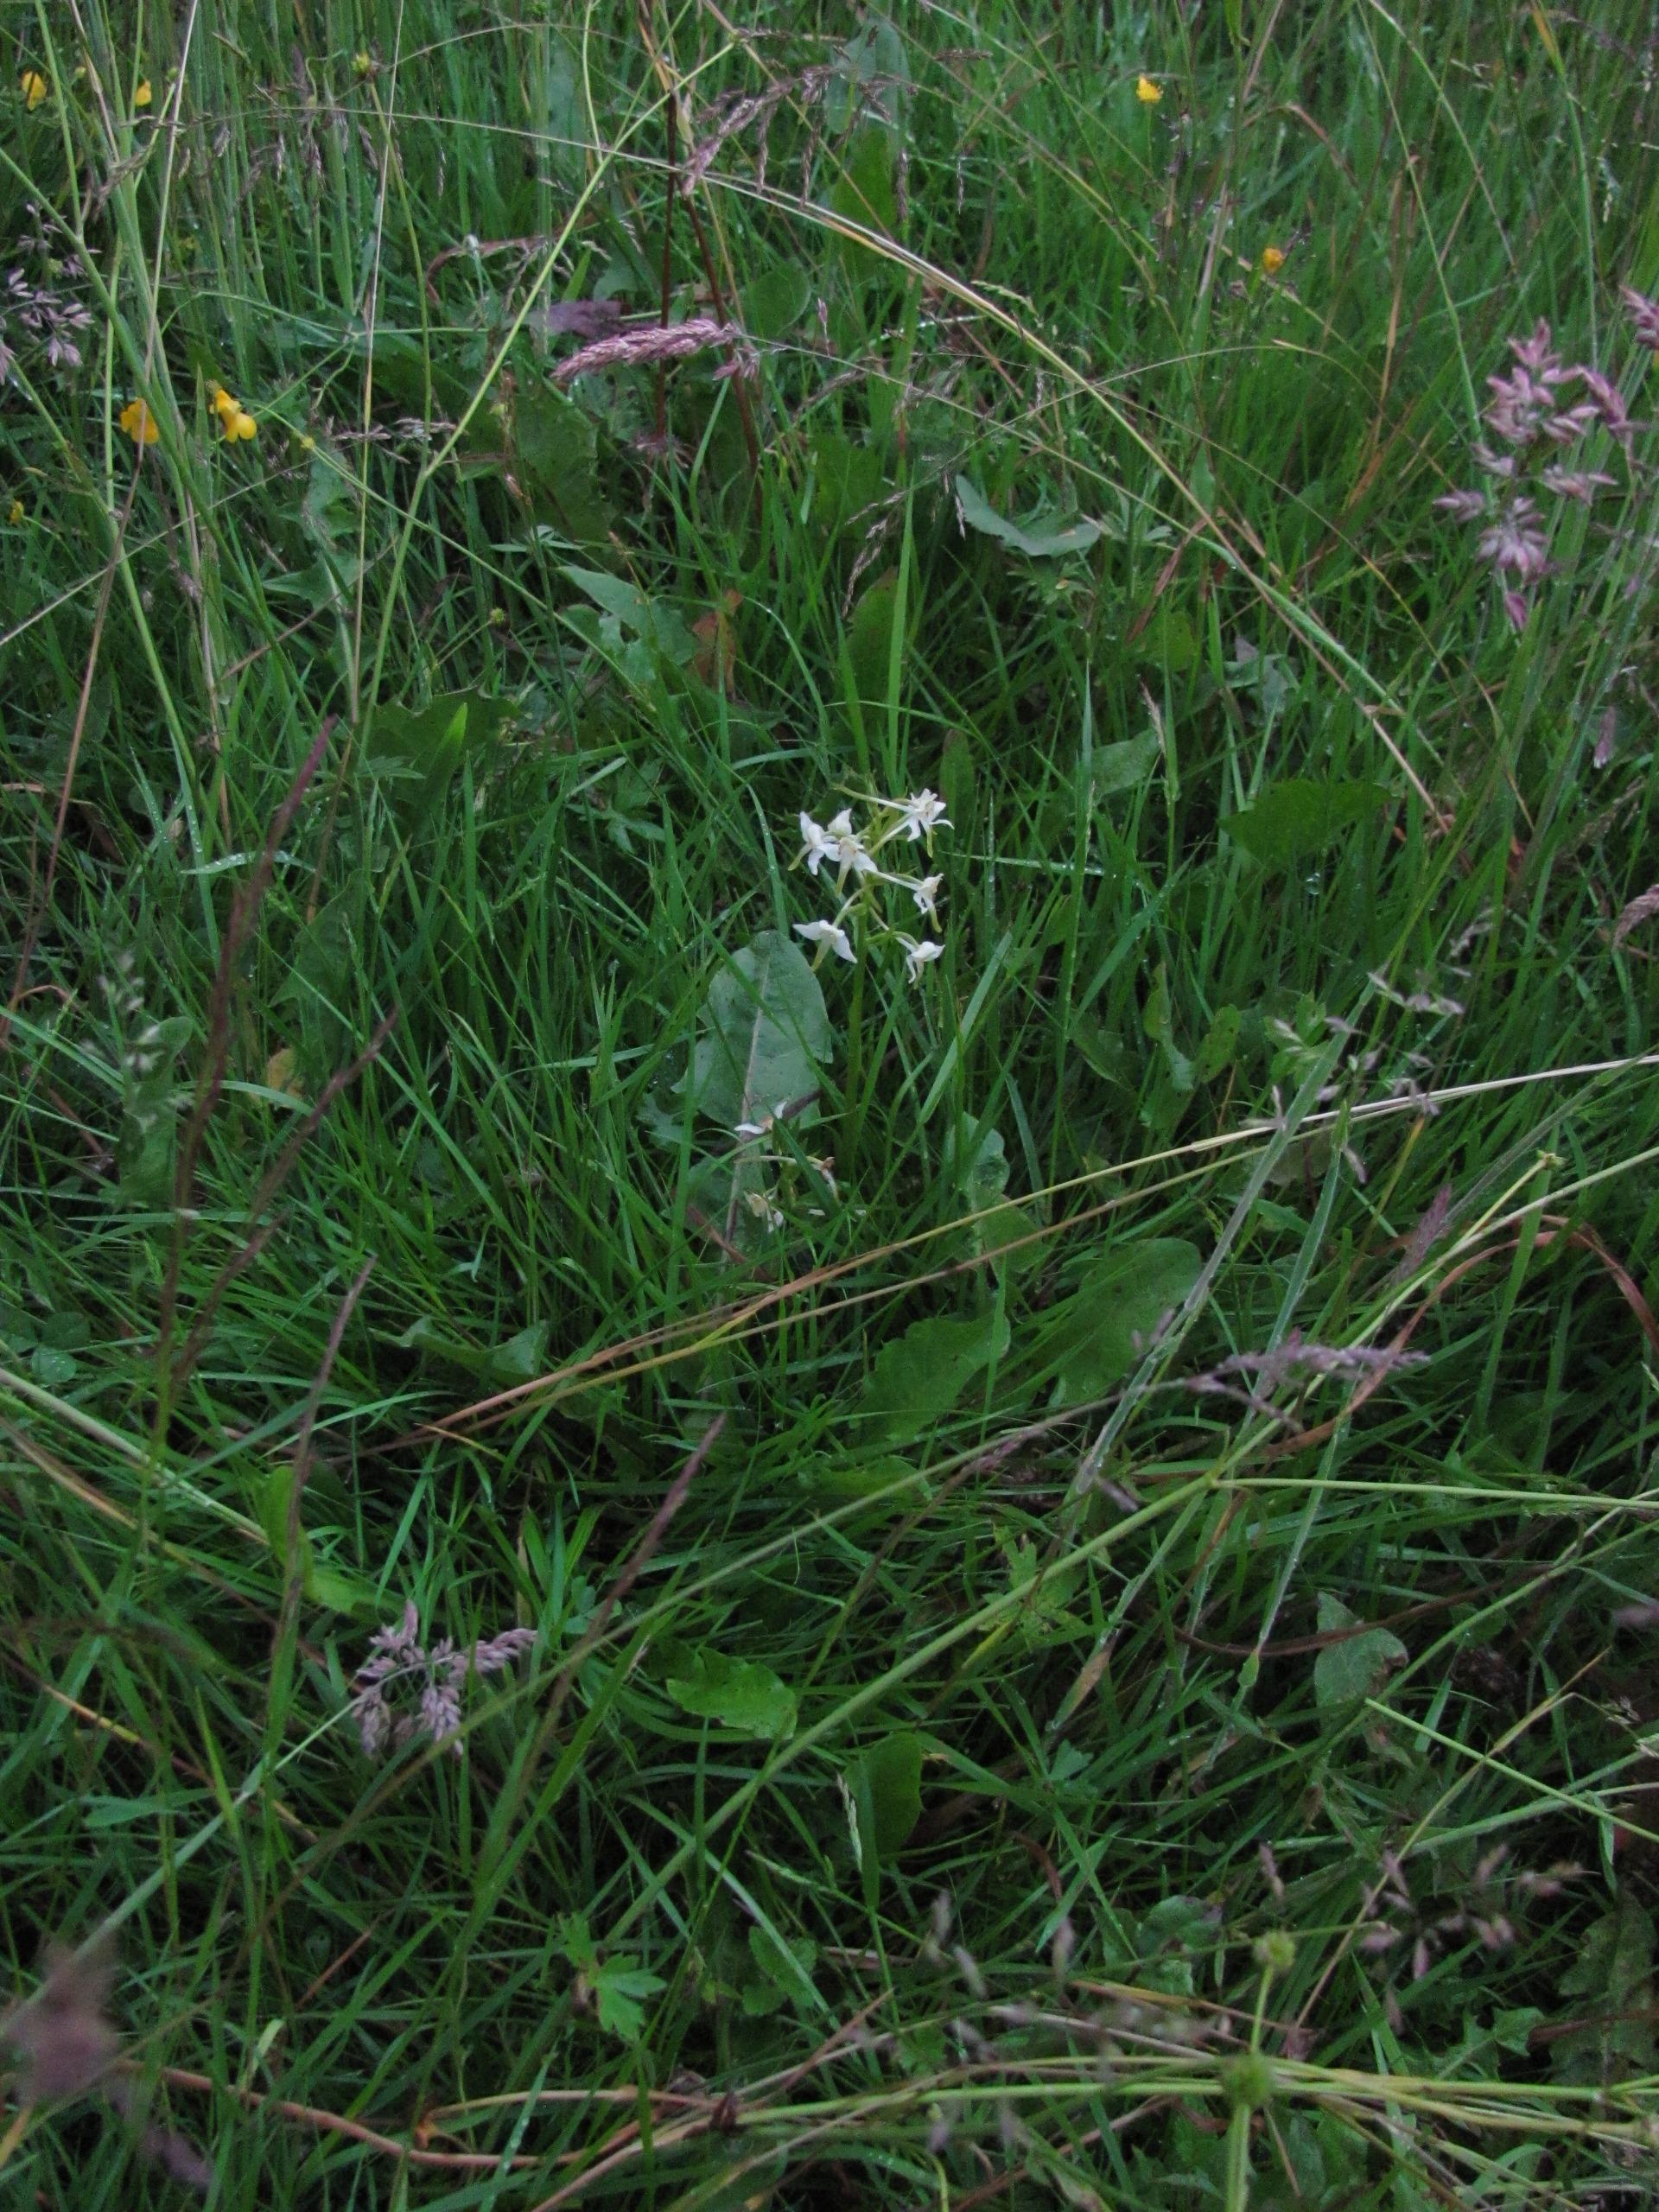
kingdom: Plantae
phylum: Tracheophyta
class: Liliopsida
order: Asparagales
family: Orchidaceae
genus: Platanthera
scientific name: Platanthera chlorantha
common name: Skov-gøgelilje
